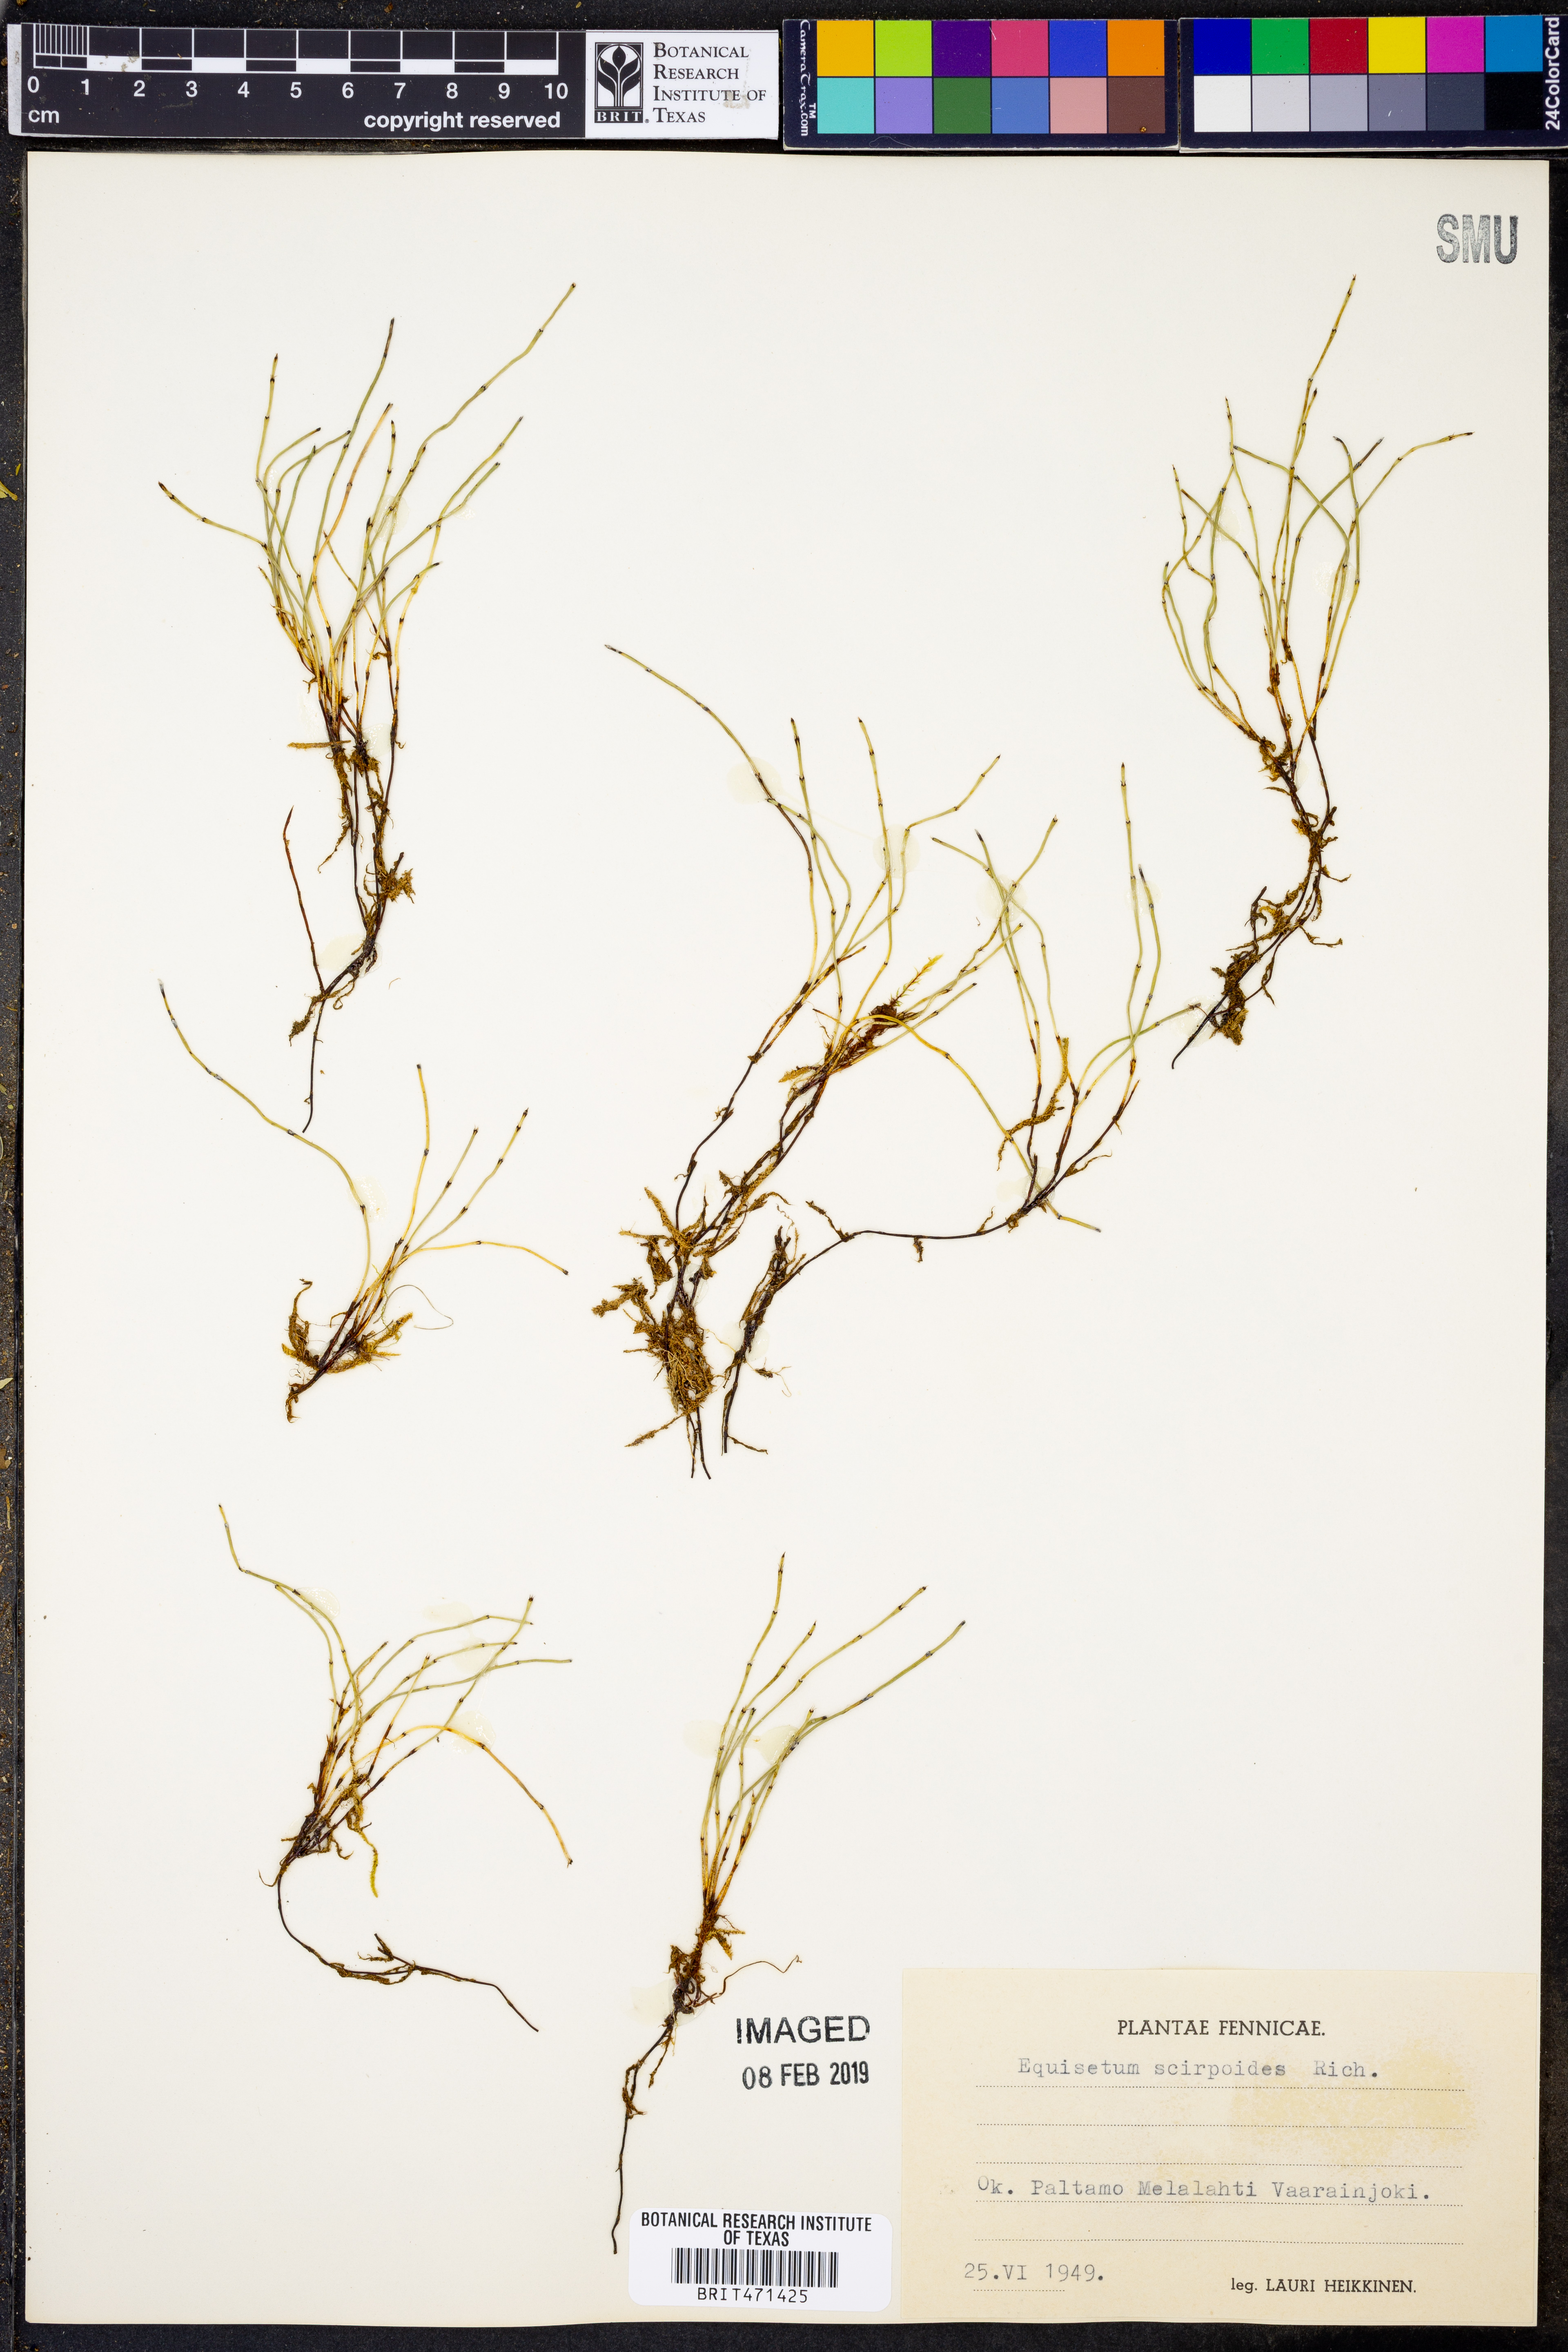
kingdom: Plantae
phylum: Tracheophyta
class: Polypodiopsida
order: Equisetales
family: Equisetaceae
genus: Equisetum
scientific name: Equisetum scirpoides
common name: Delicate horsetail
